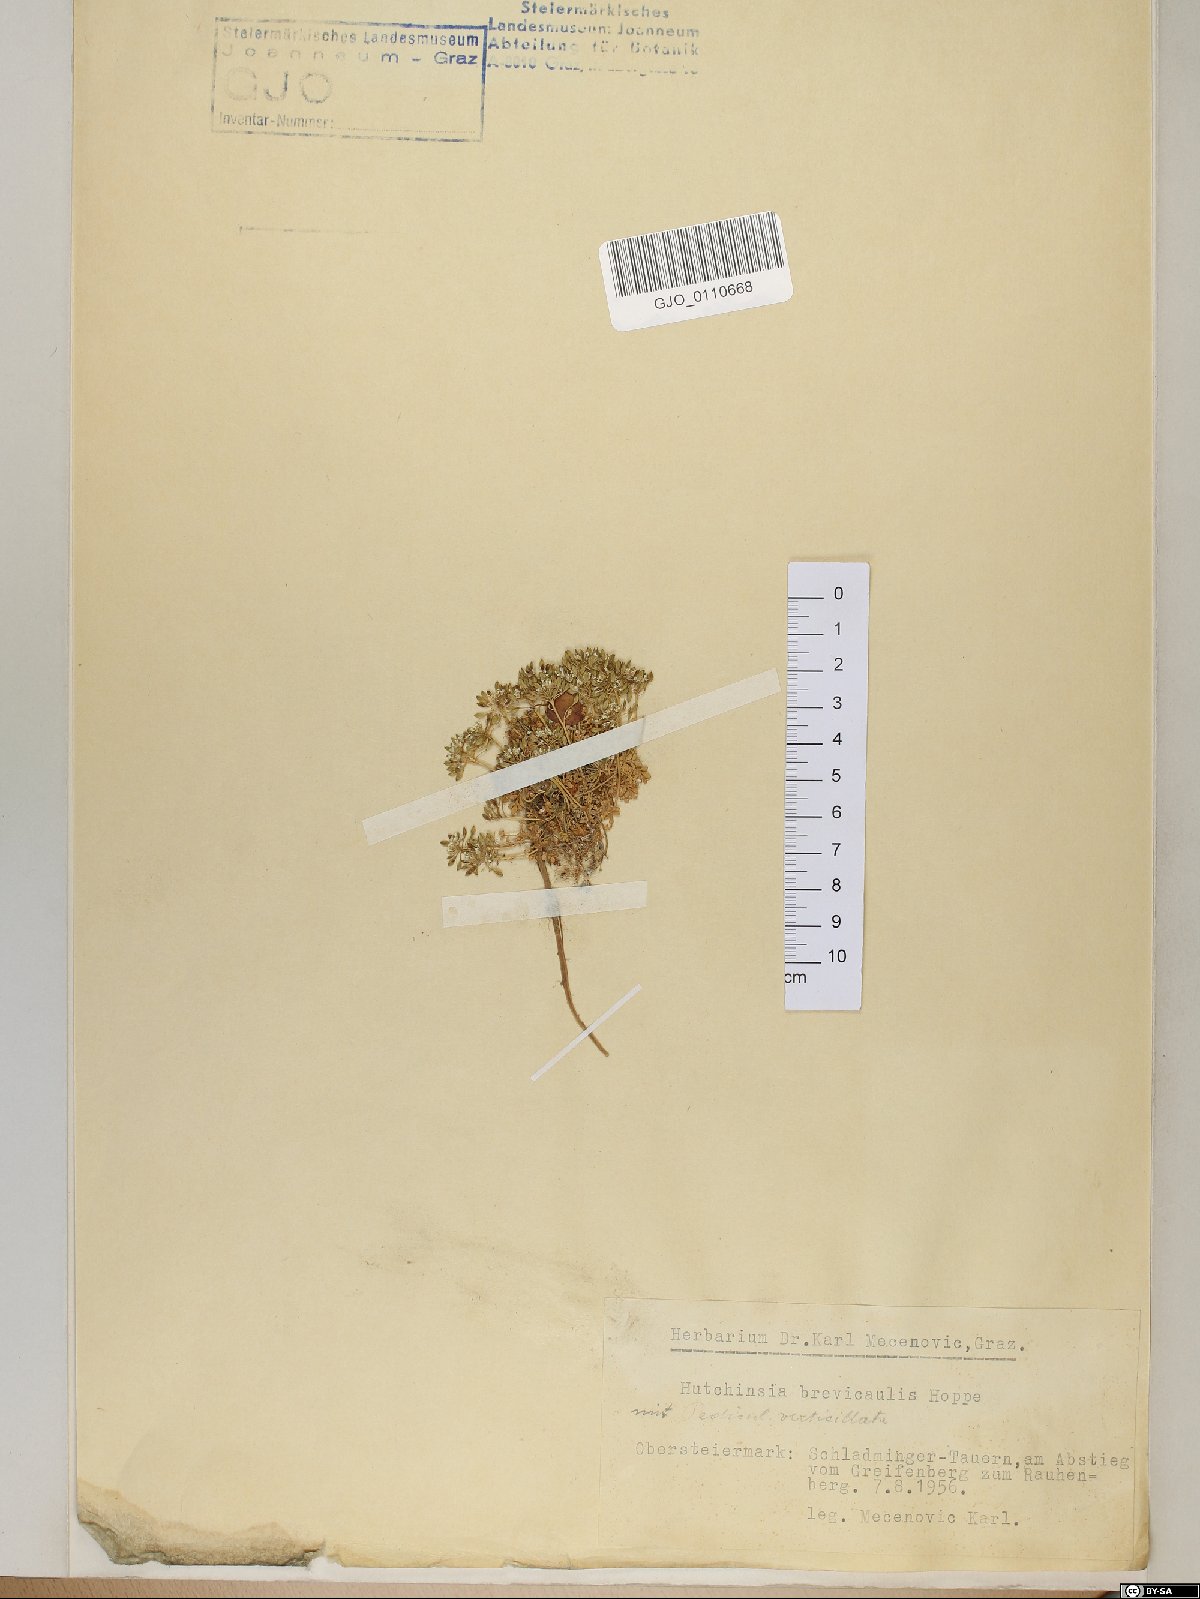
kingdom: Plantae
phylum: Tracheophyta
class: Magnoliopsida
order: Brassicales
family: Brassicaceae
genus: Hornungia
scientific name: Hornungia alpina
